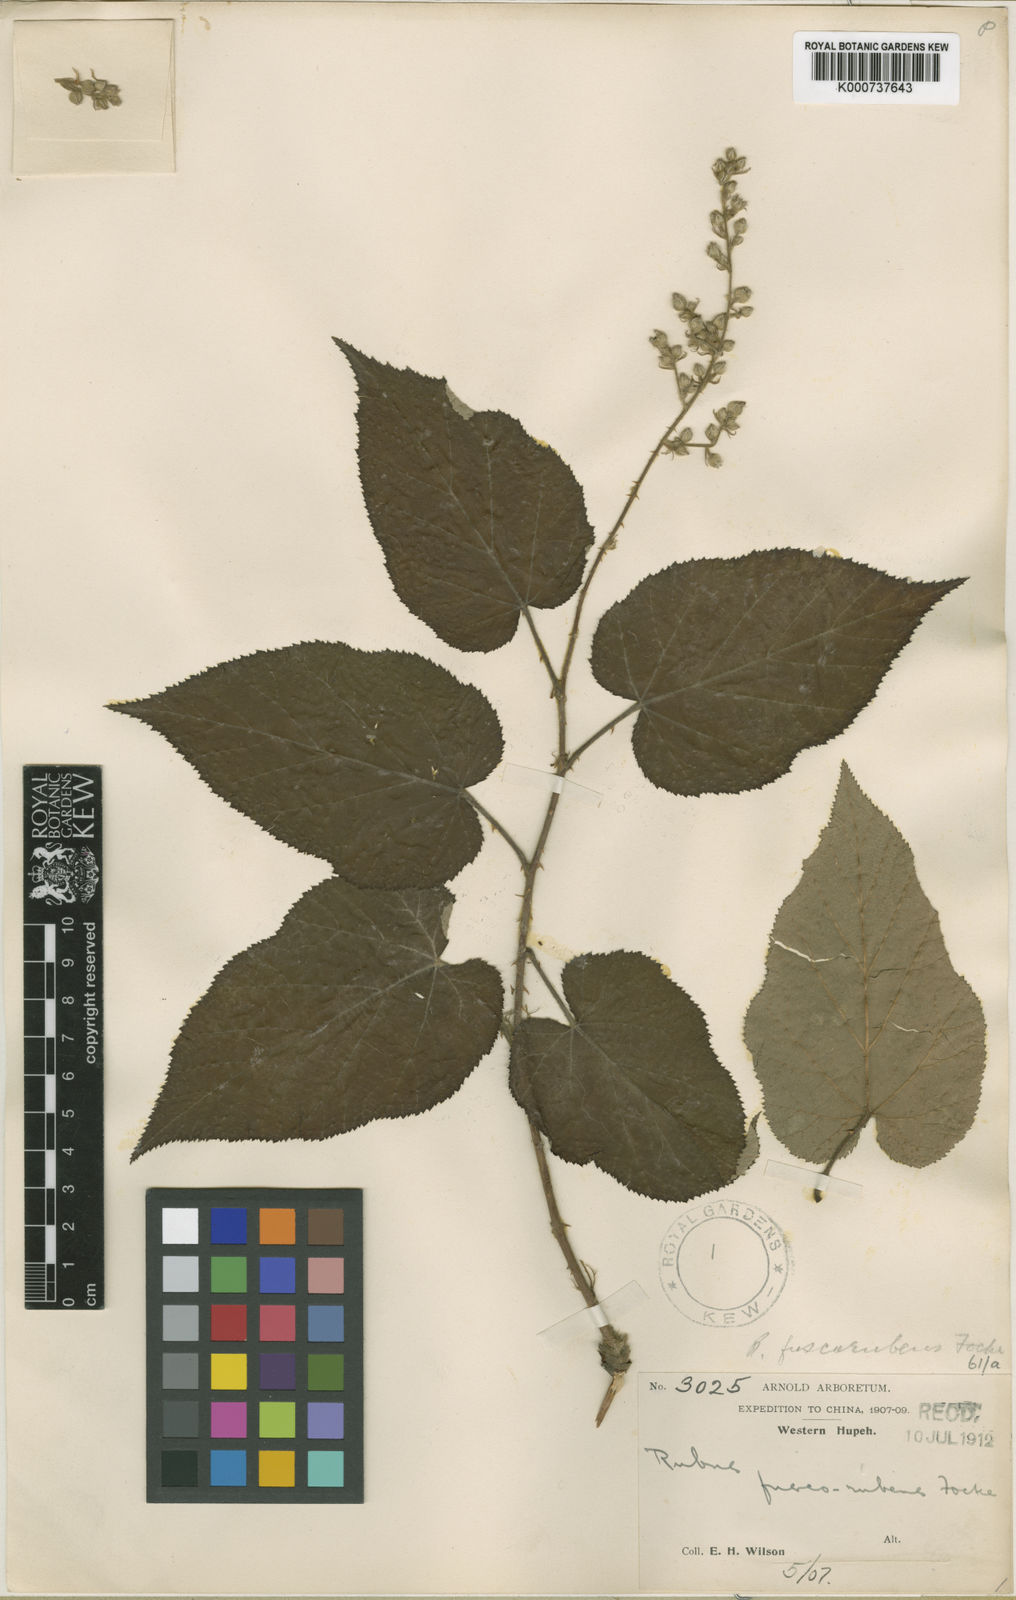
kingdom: Plantae
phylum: Tracheophyta
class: Magnoliopsida
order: Rosales
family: Rosaceae
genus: Rubus
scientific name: Rubus fuscorubens
